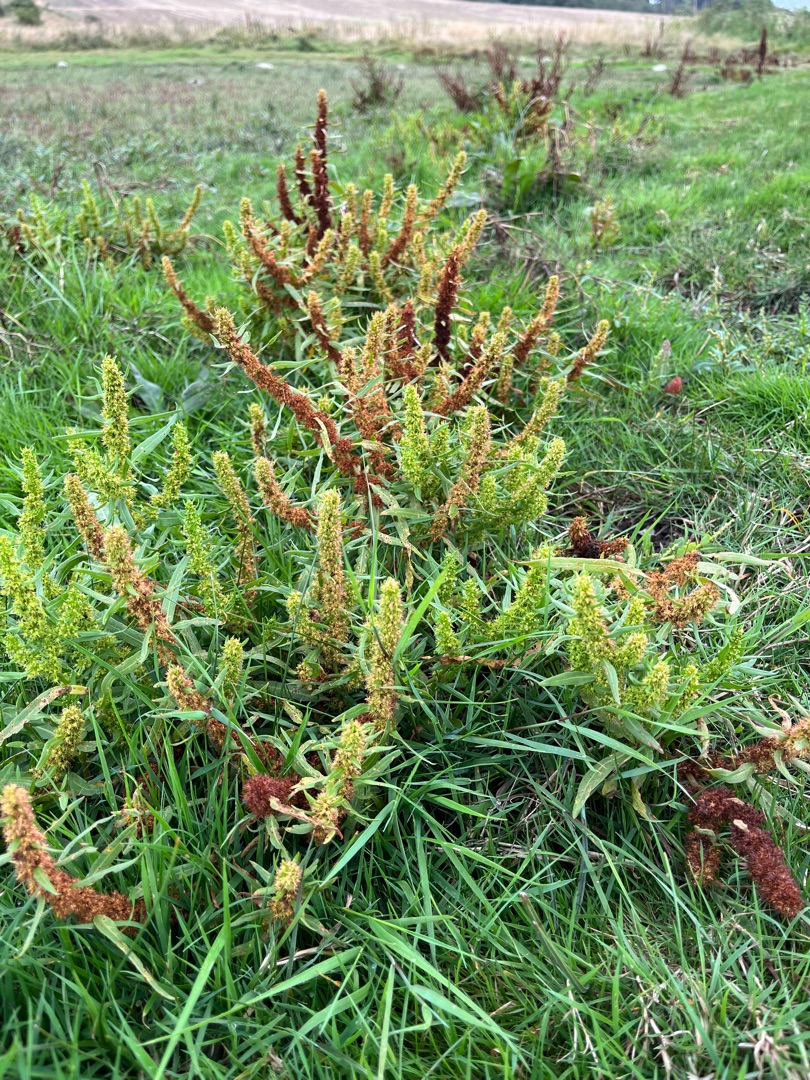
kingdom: Plantae
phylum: Tracheophyta
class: Magnoliopsida
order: Caryophyllales
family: Polygonaceae
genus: Rumex
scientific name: Rumex maritimus
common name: Strand-skræppe
